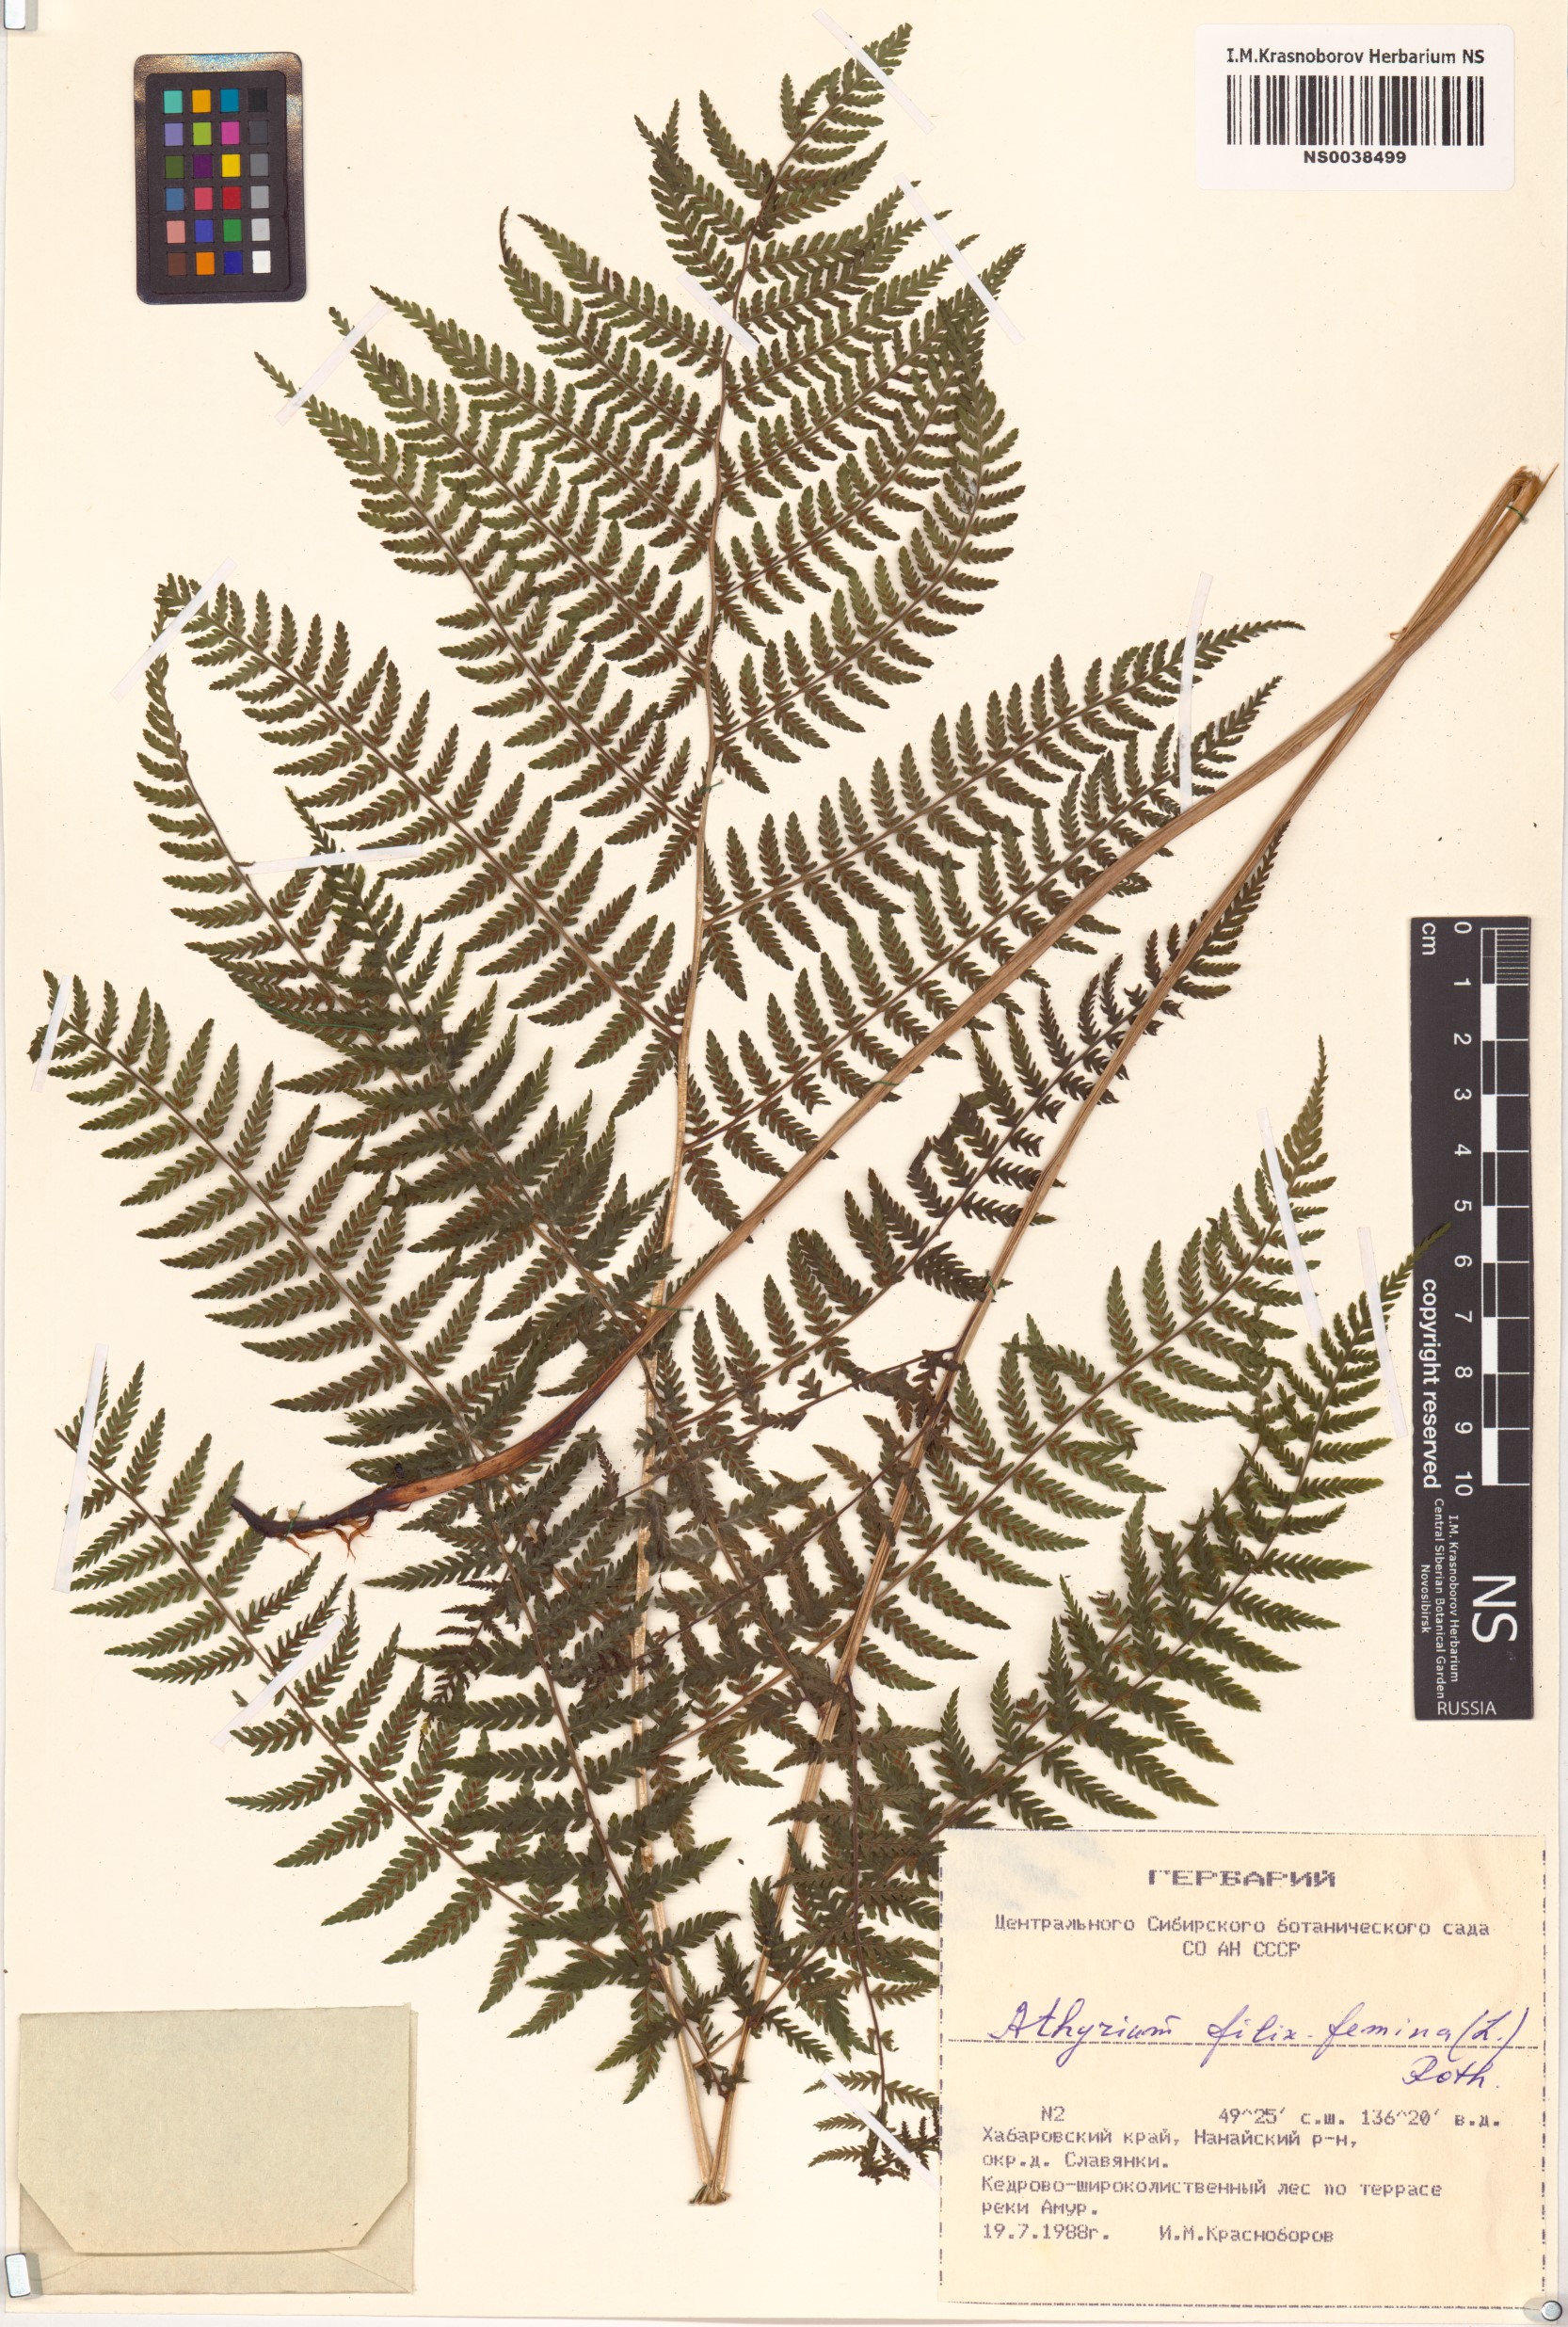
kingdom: Plantae
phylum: Tracheophyta
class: Polypodiopsida
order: Polypodiales
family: Athyriaceae
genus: Athyrium
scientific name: Athyrium filix-femina
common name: Lady fern
